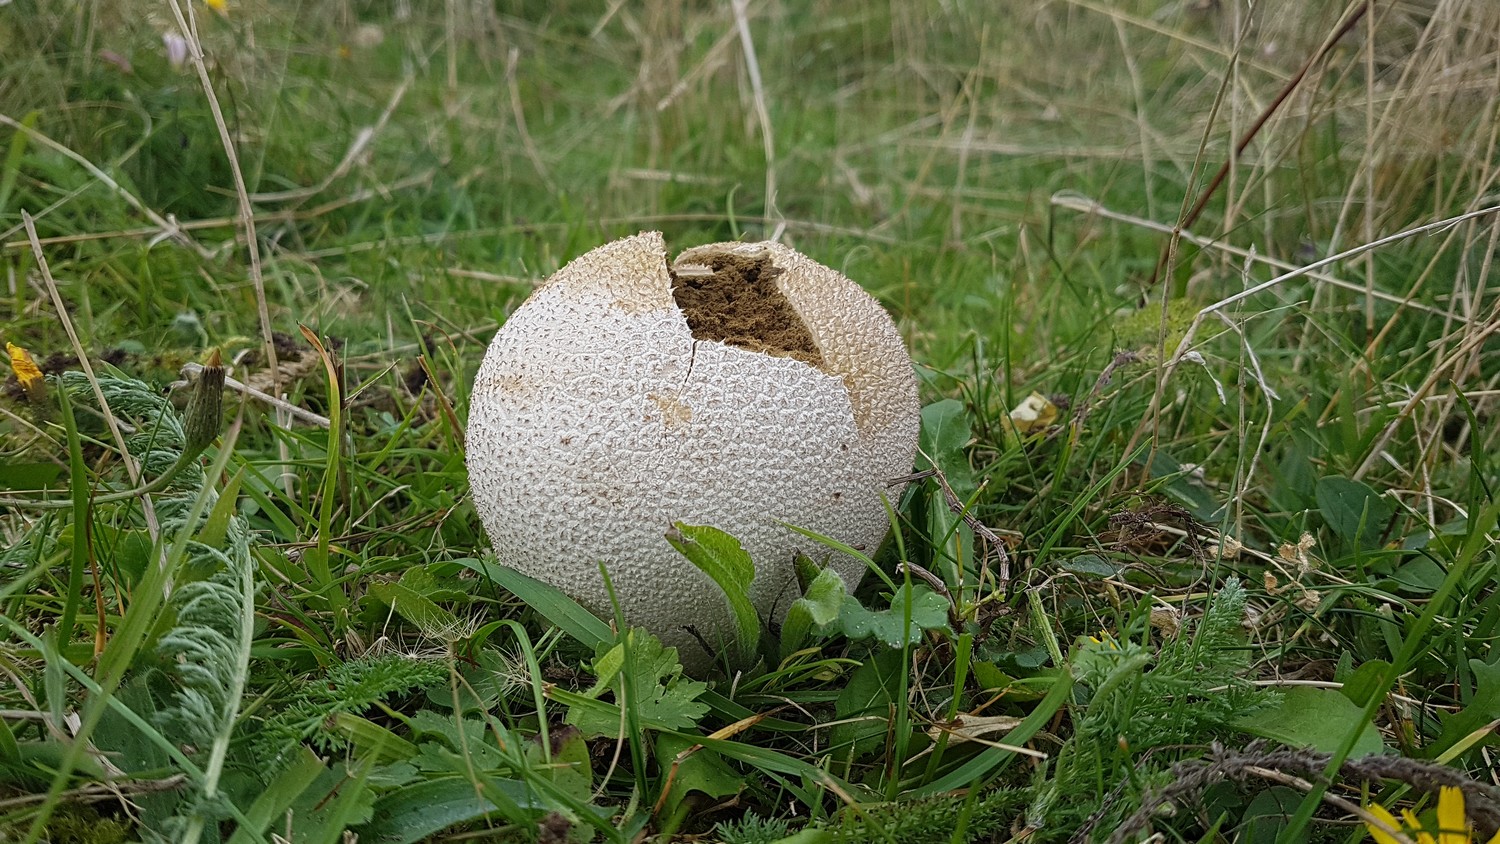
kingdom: Fungi
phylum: Basidiomycota
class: Agaricomycetes
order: Agaricales
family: Lycoperdaceae
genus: Bovistella
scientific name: Bovistella utriformis
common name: skællet støvbold
